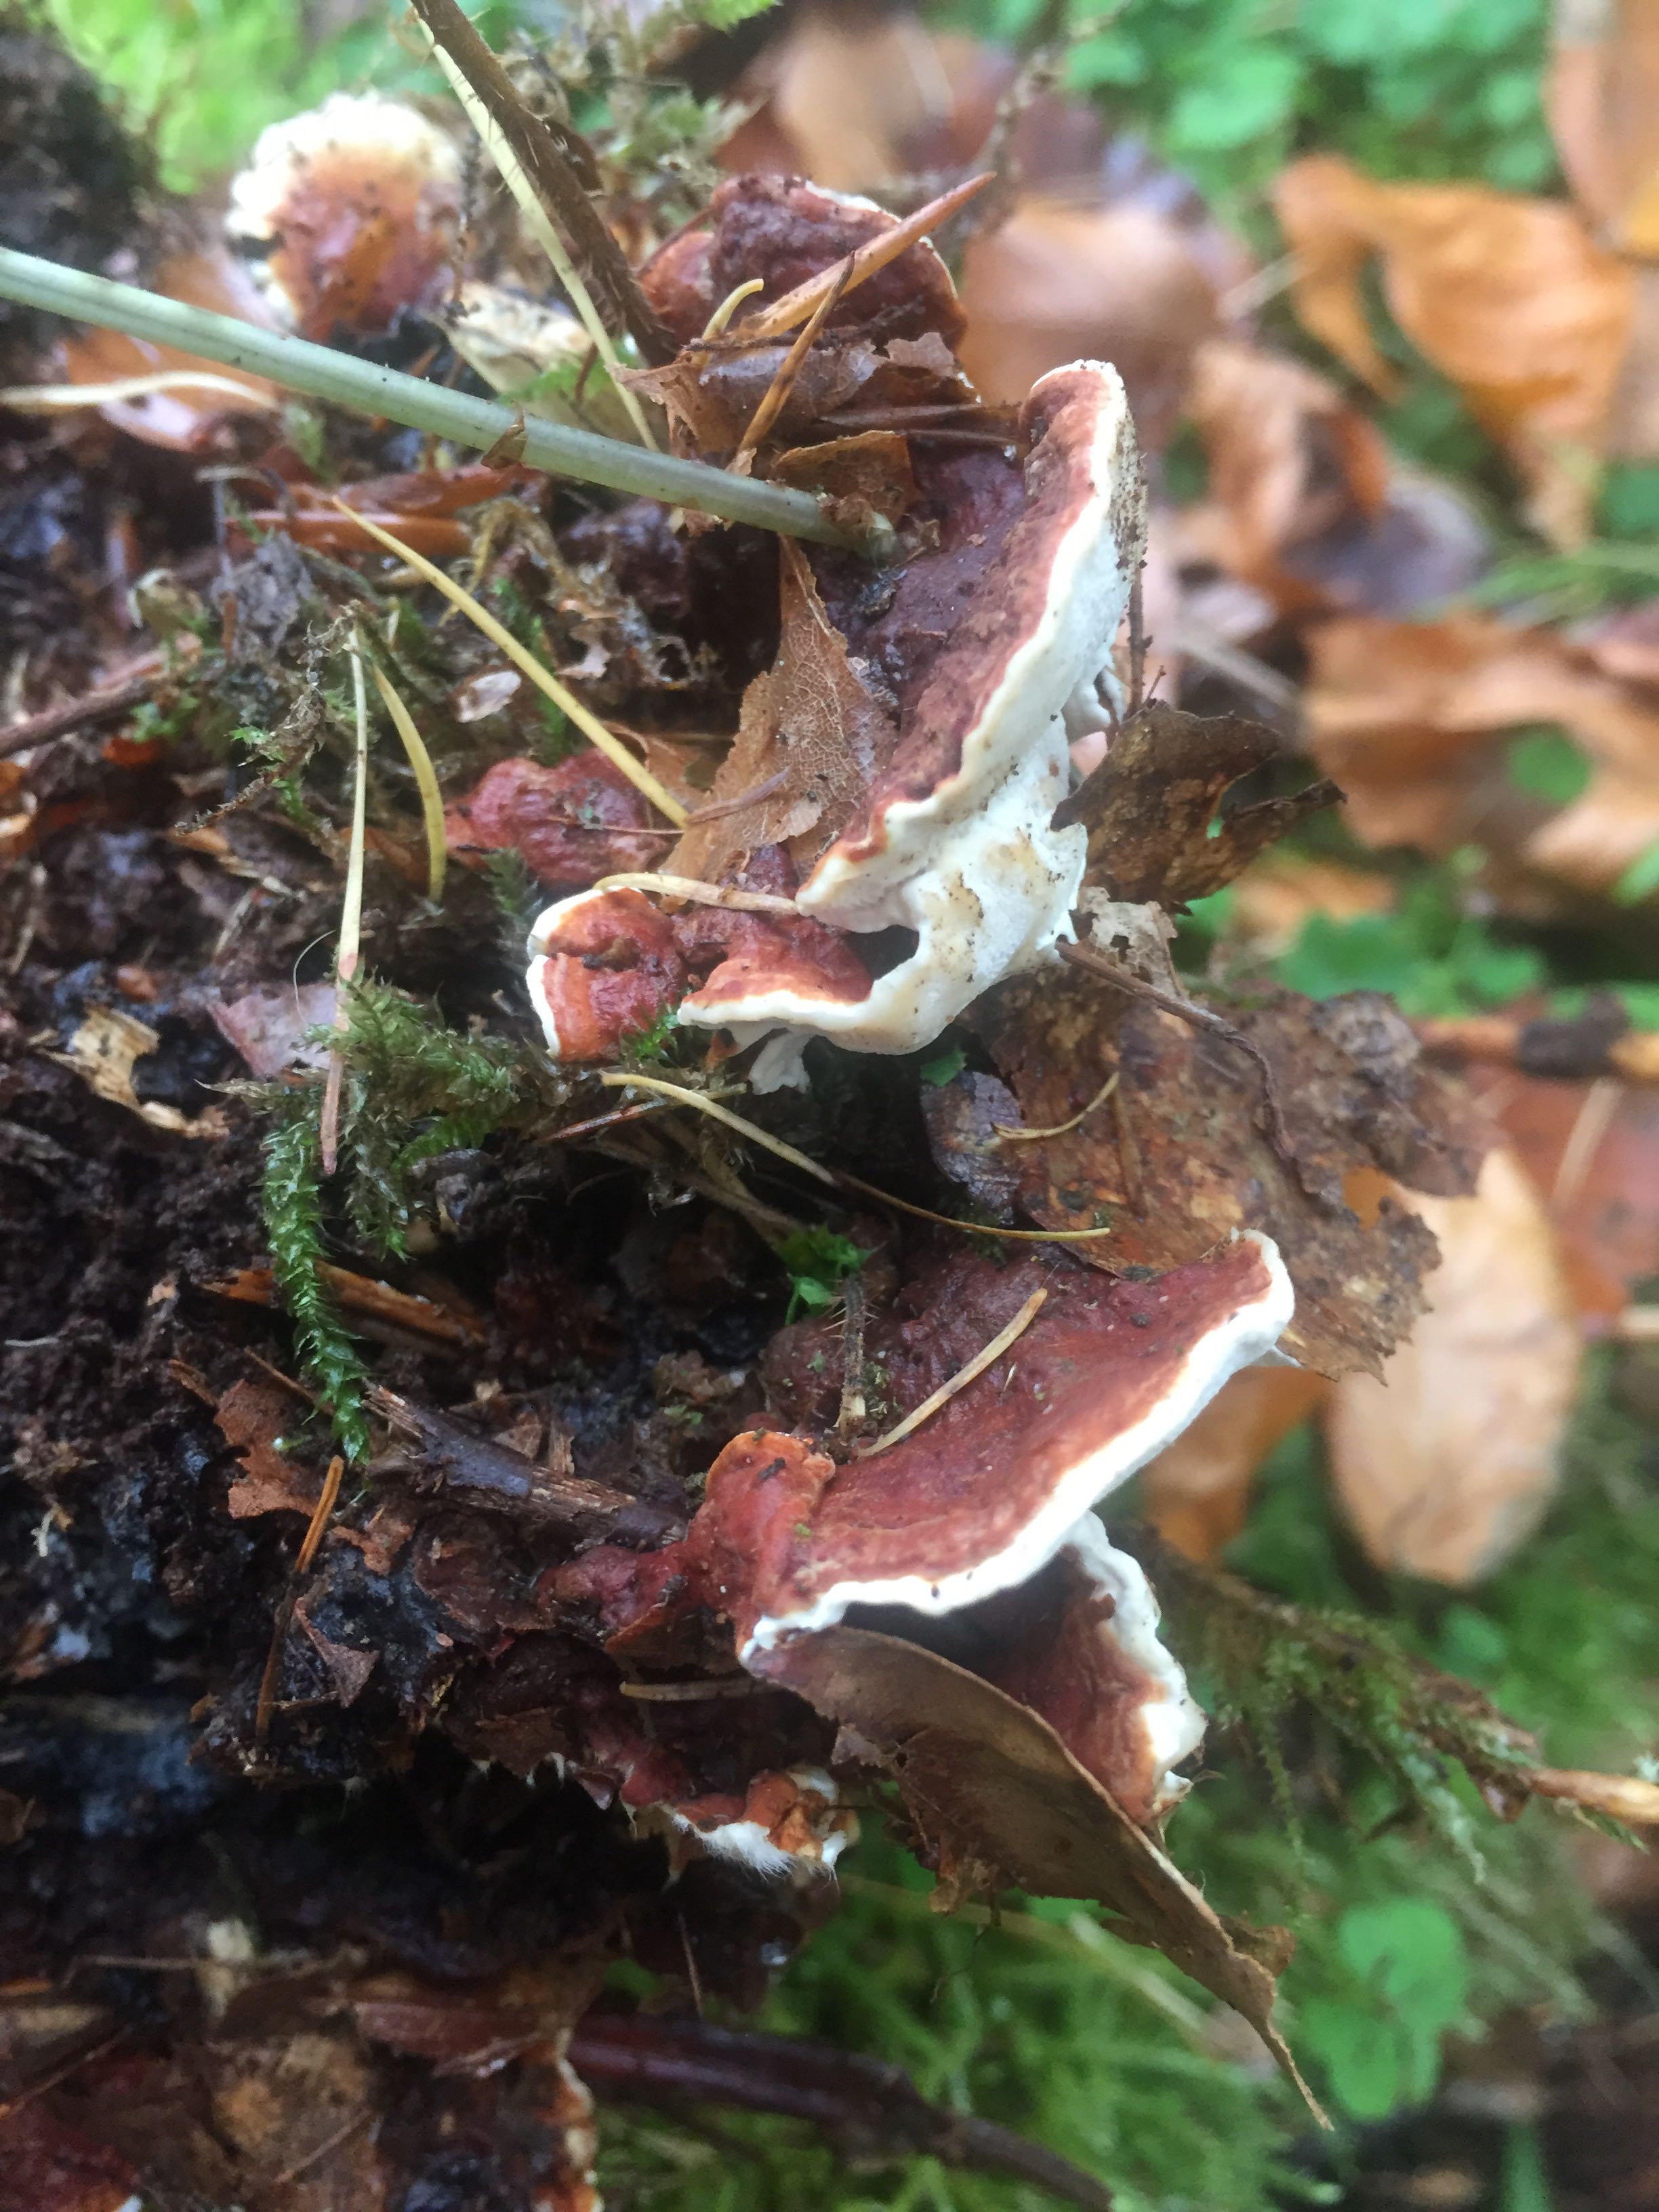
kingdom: Fungi
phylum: Basidiomycota
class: Agaricomycetes
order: Russulales
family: Bondarzewiaceae
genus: Heterobasidion
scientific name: Heterobasidion annosum
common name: almindelig rodfordærver
